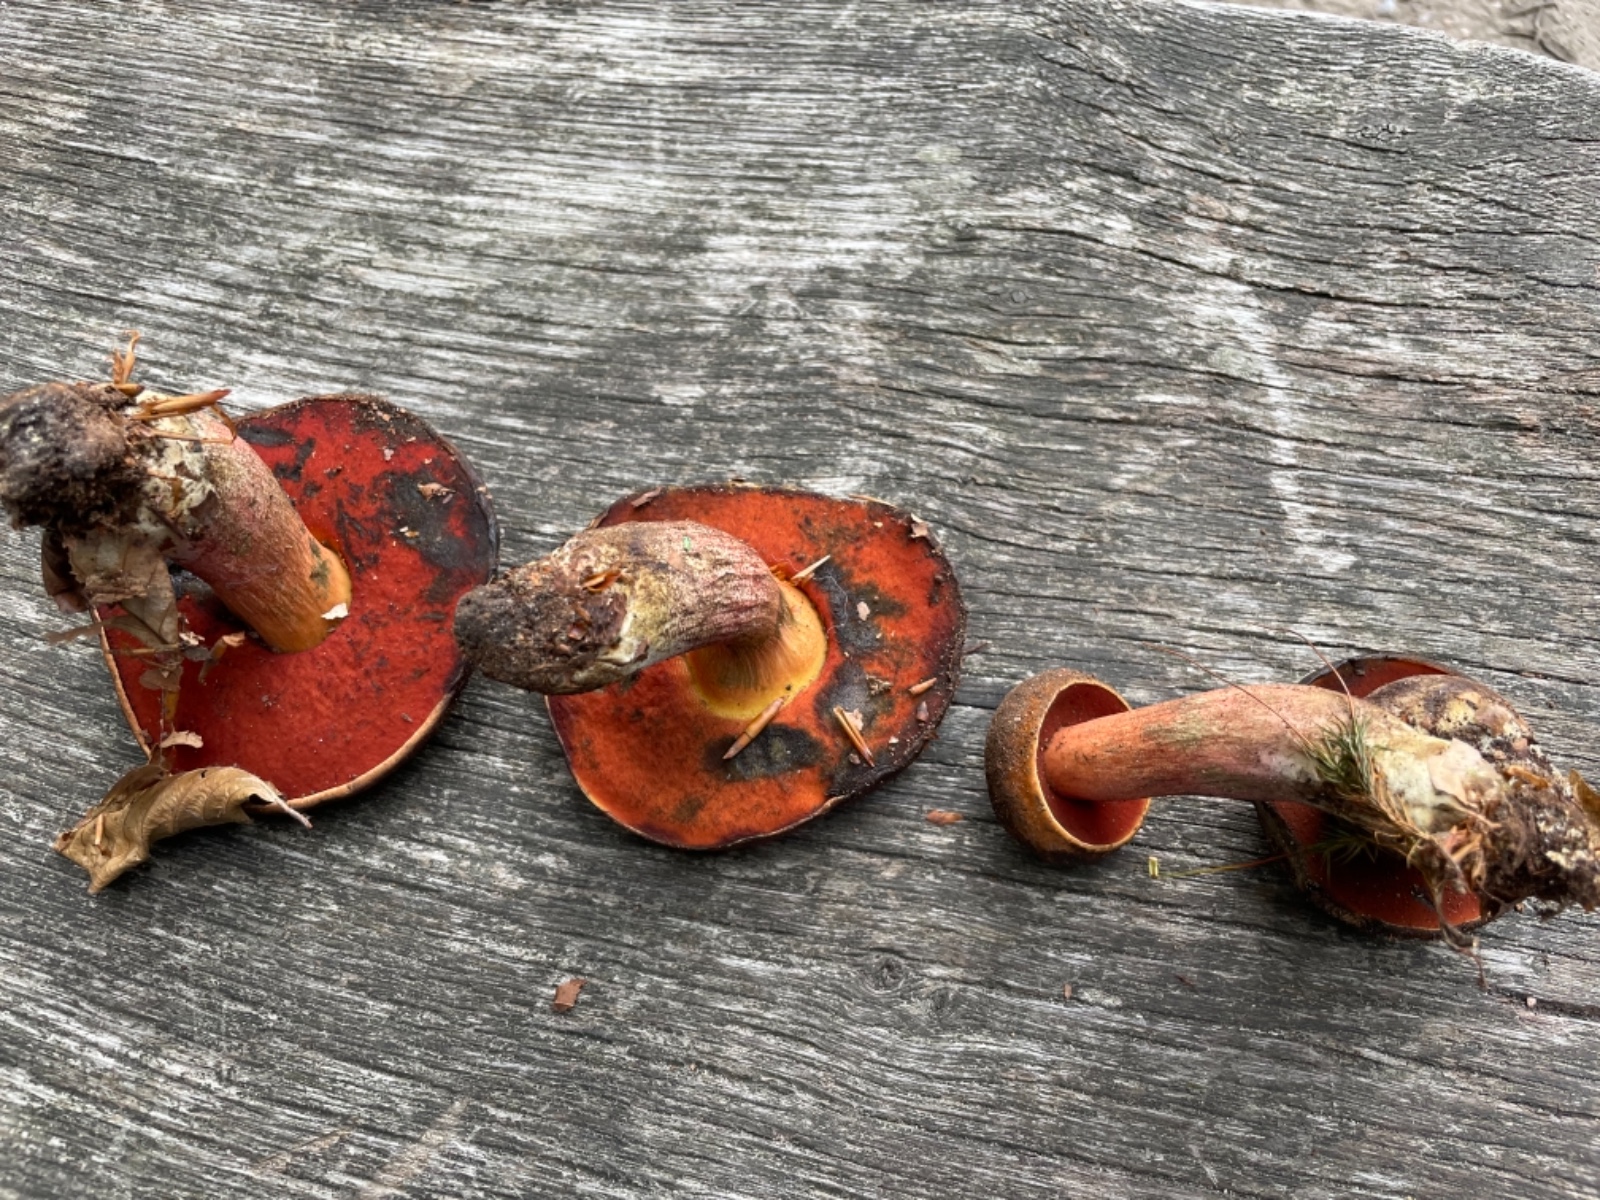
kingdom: Fungi
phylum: Basidiomycota
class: Agaricomycetes
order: Boletales
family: Boletaceae
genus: Neoboletus
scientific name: Neoboletus erythropus
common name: punktstokket indigorørhat
